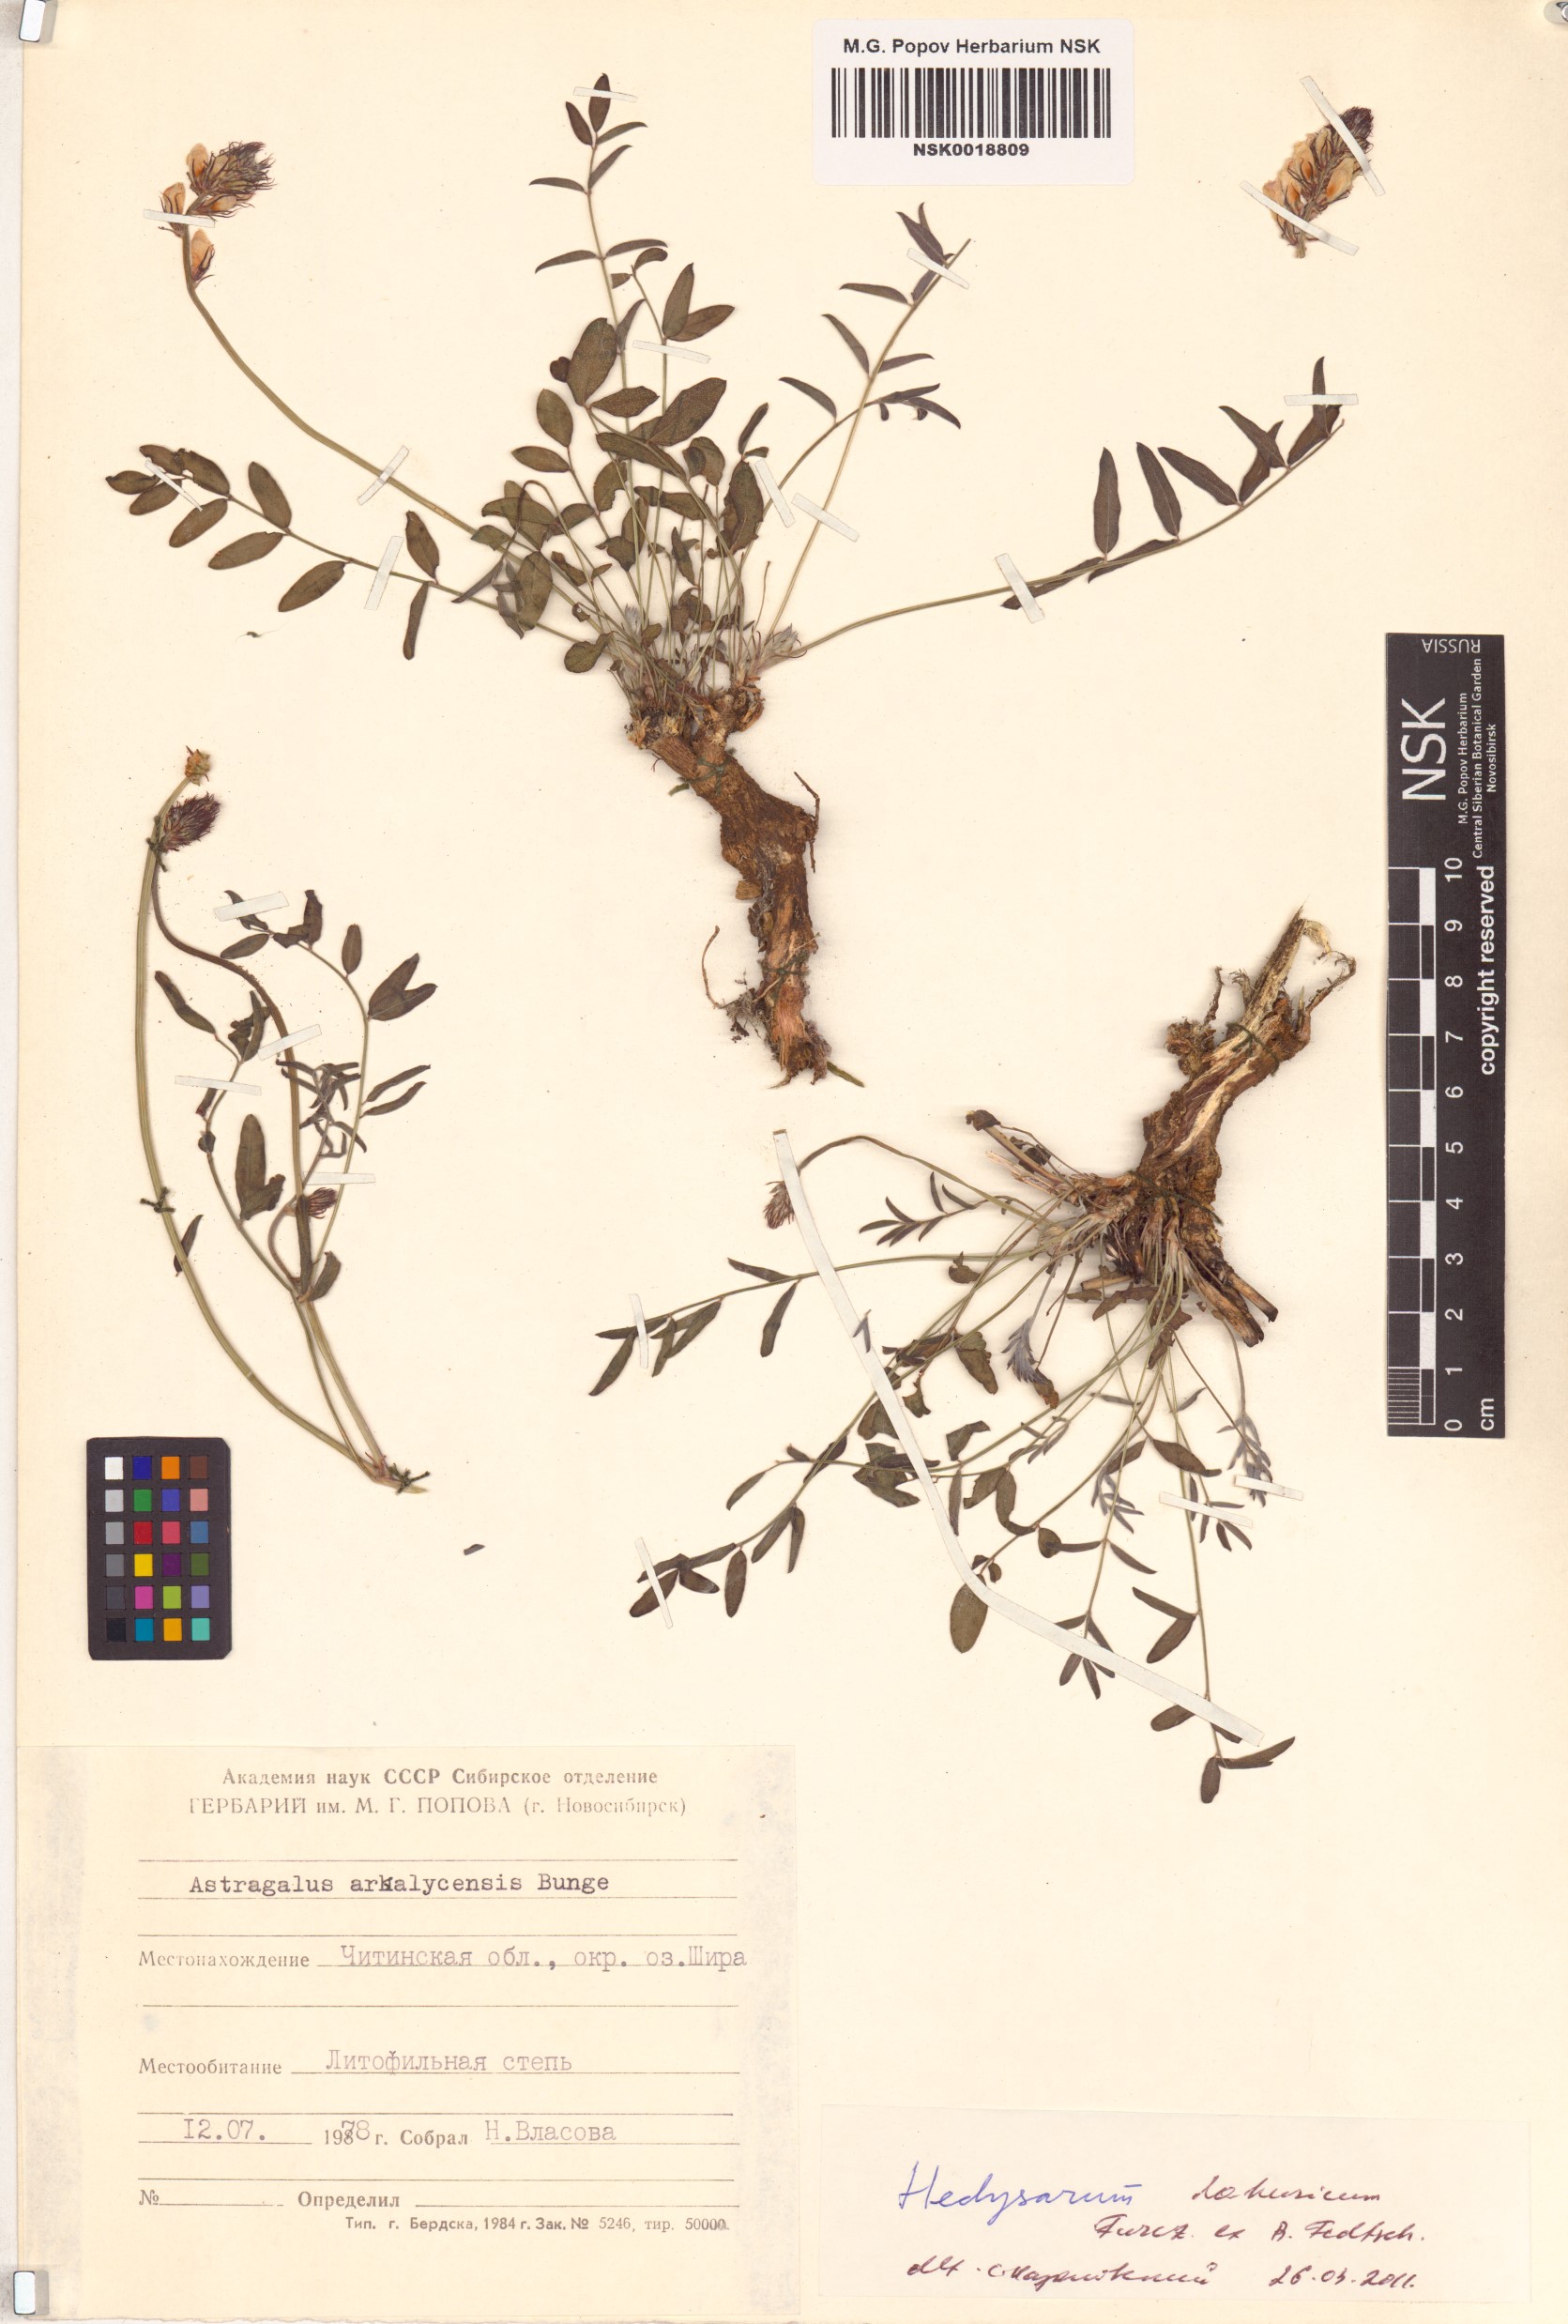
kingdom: Plantae
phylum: Tracheophyta
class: Magnoliopsida
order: Fabales
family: Fabaceae
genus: Hedysarum
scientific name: Hedysarum dahuricum
